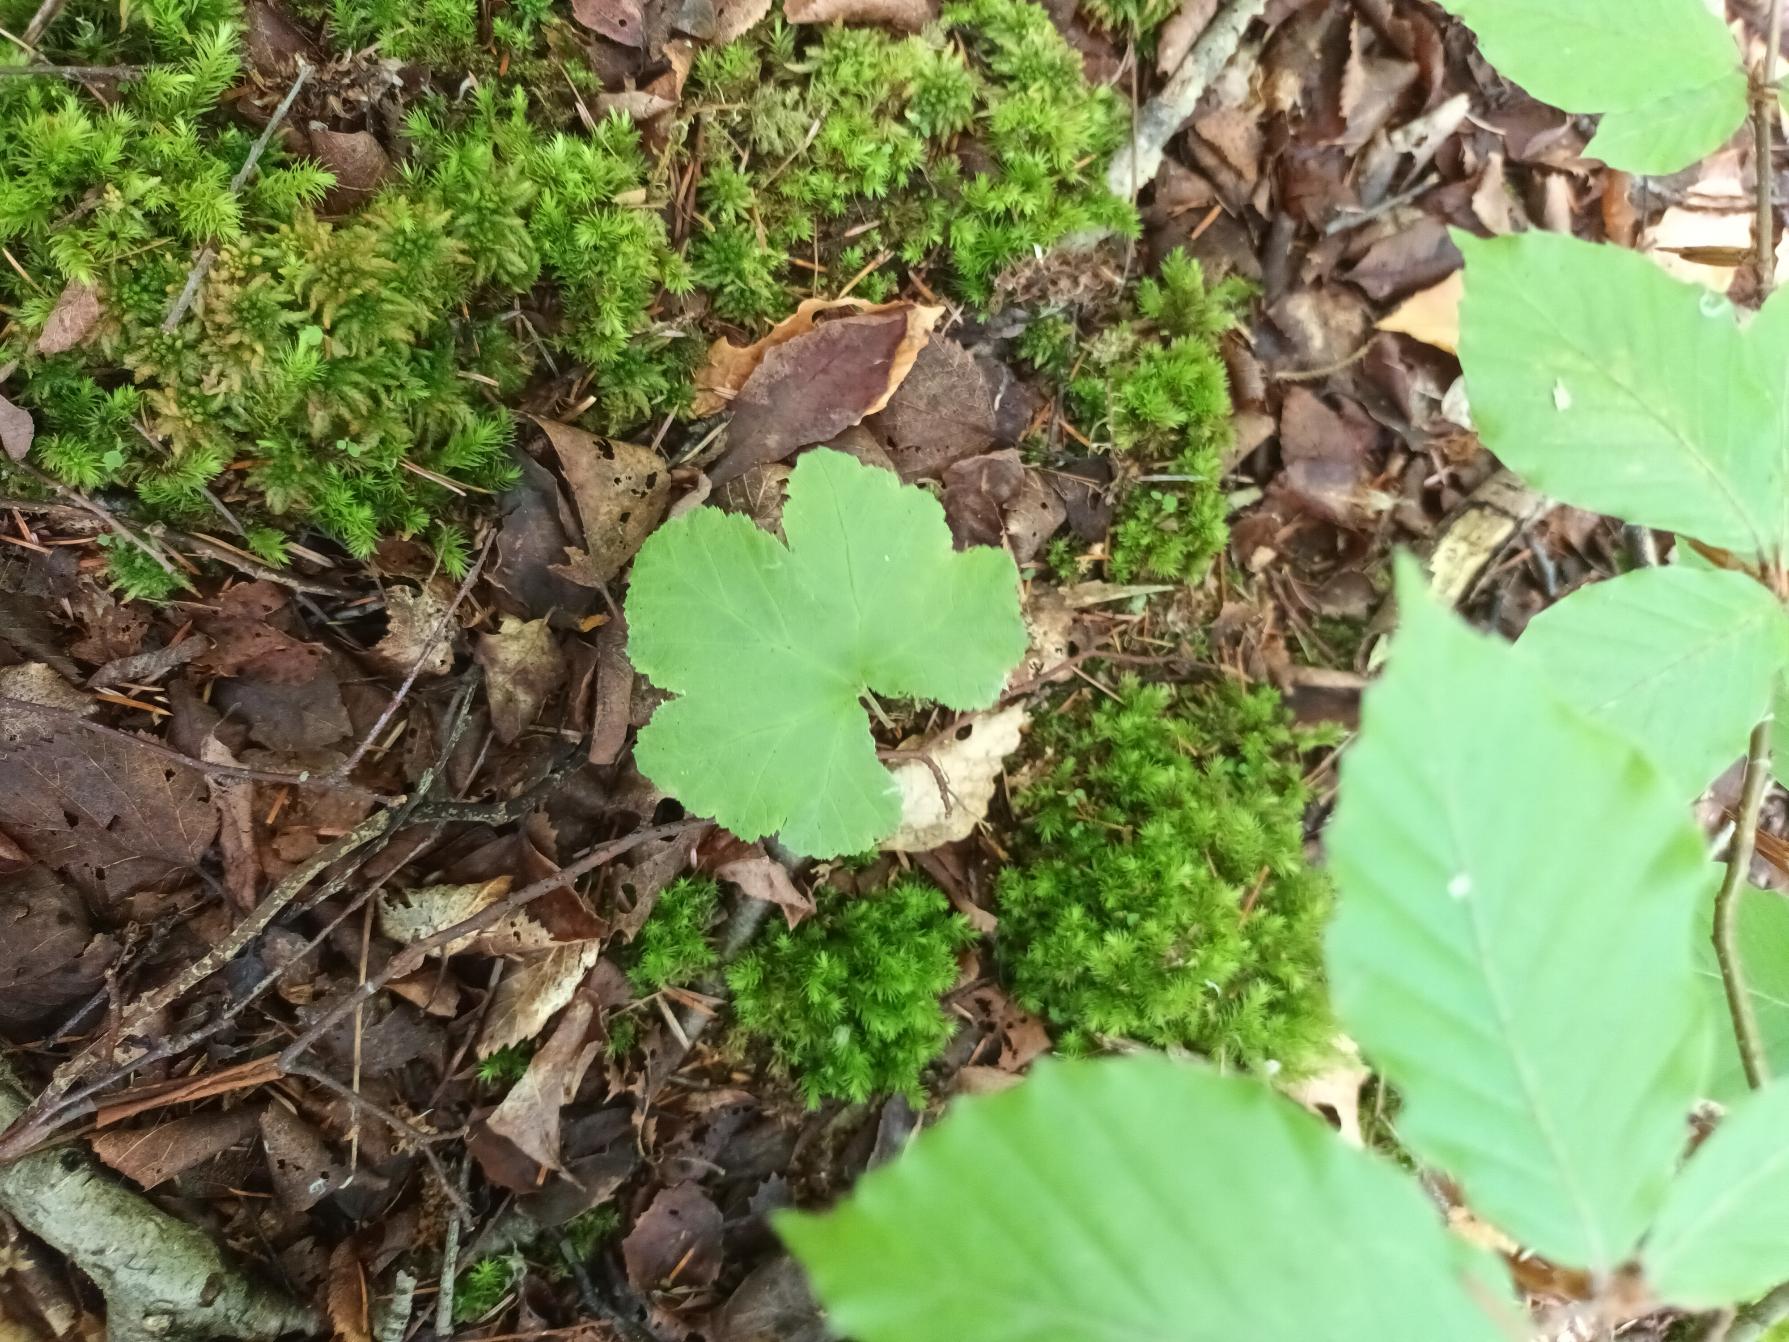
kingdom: Plantae
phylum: Tracheophyta
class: Magnoliopsida
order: Rosales
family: Rosaceae
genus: Rubus
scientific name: Rubus chamaemorus
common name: Multebær
